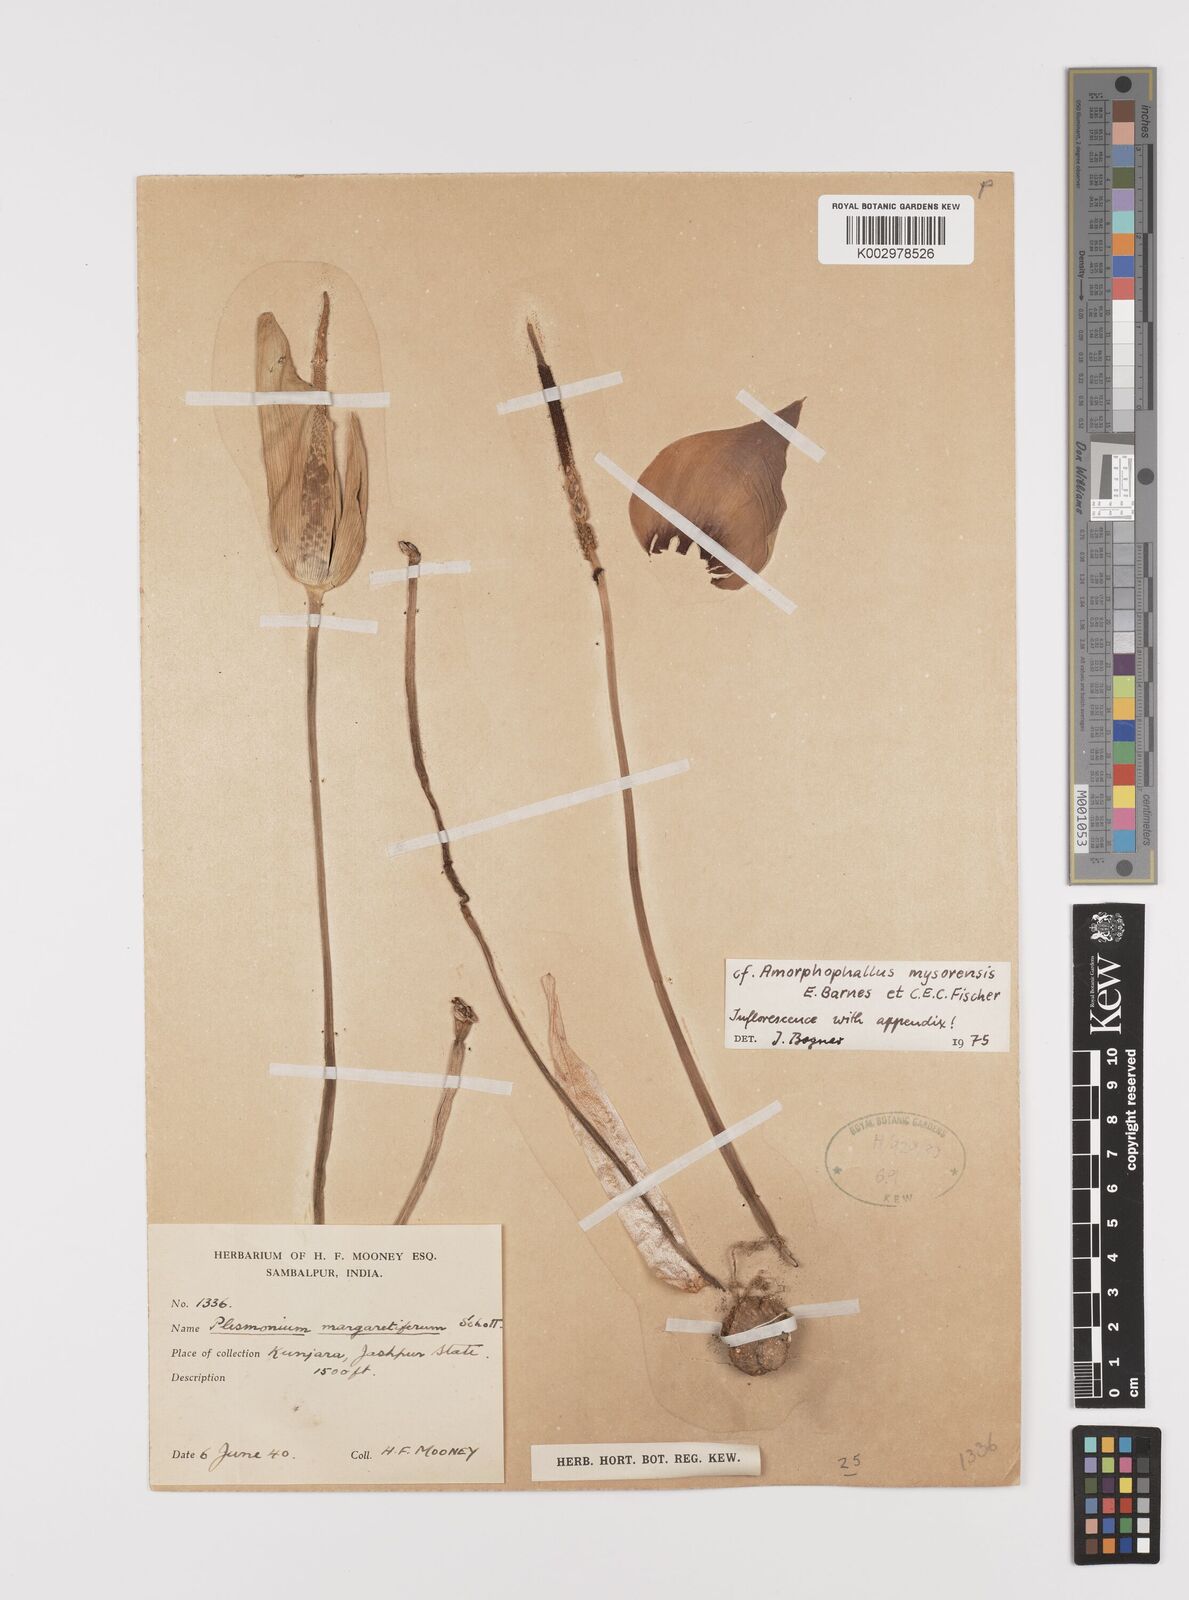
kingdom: Plantae
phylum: Tracheophyta
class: Liliopsida
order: Alismatales
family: Araceae
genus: Amorphophallus
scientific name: Amorphophallus mysorensis
